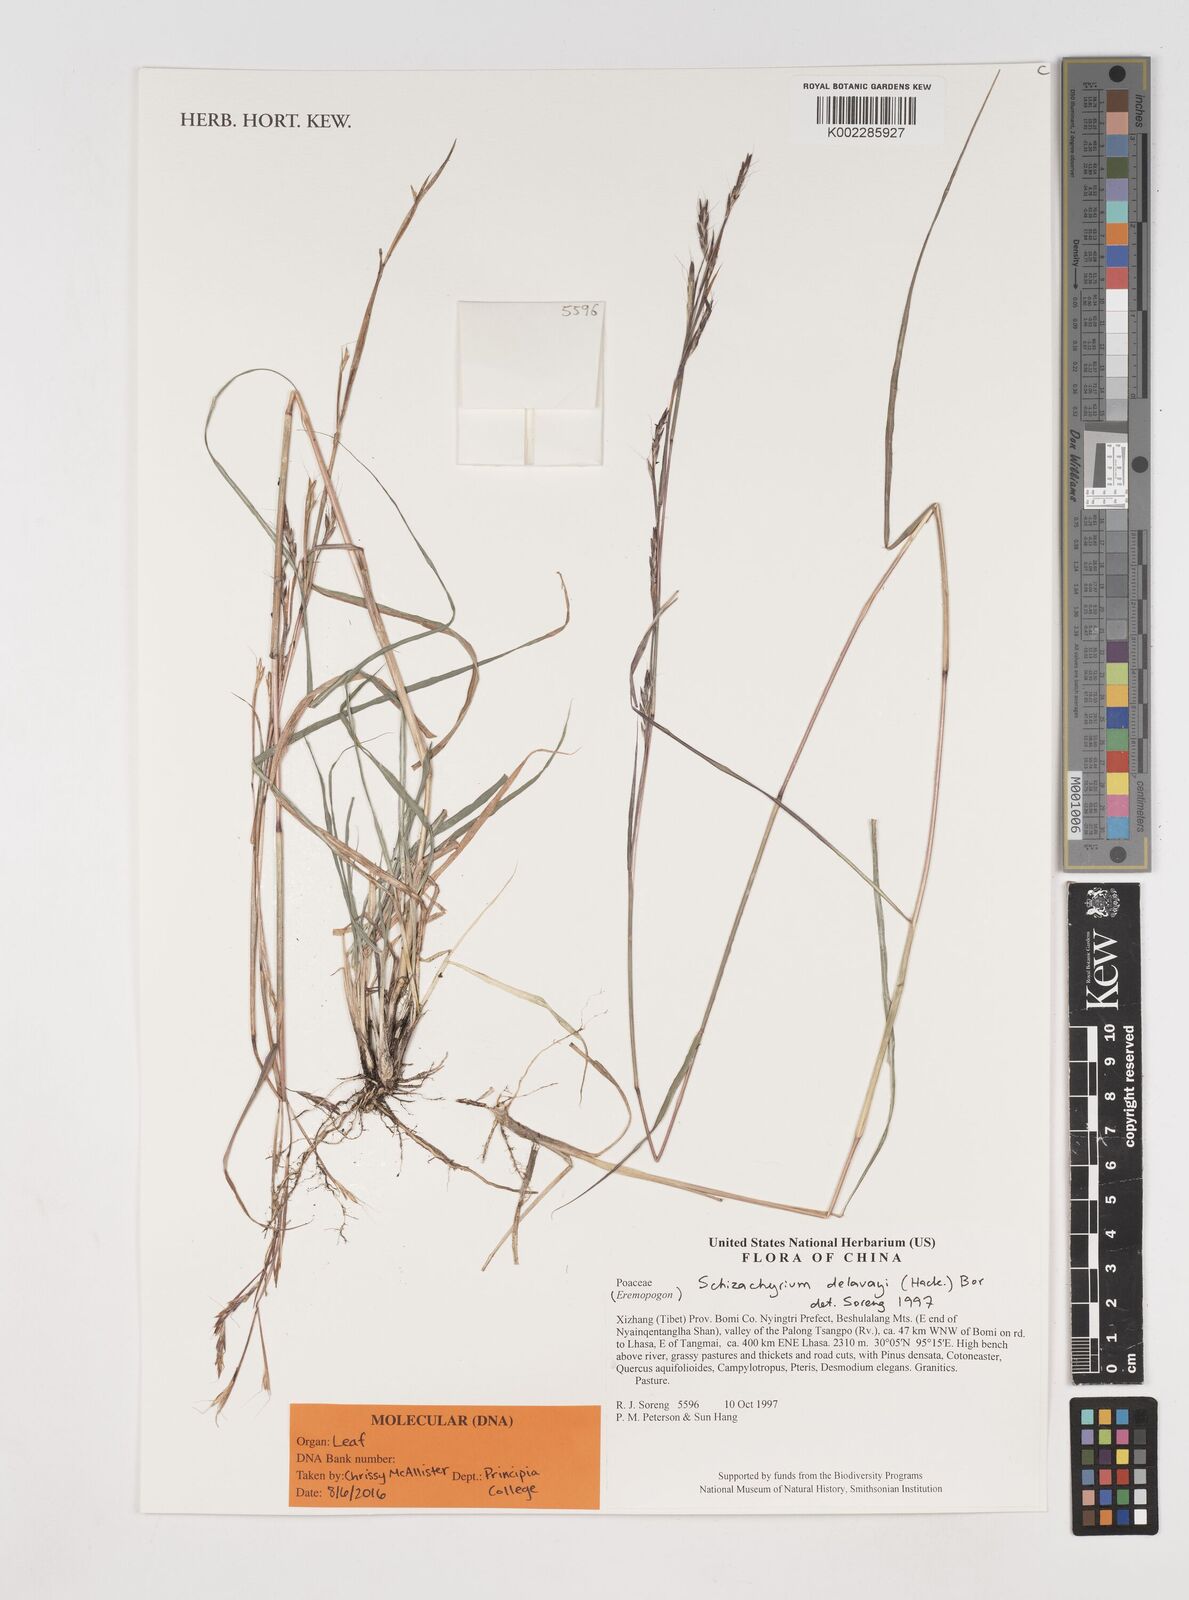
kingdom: Plantae
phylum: Tracheophyta
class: Liliopsida
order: Poales
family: Poaceae
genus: Schizachyrium
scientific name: Schizachyrium delavayi
